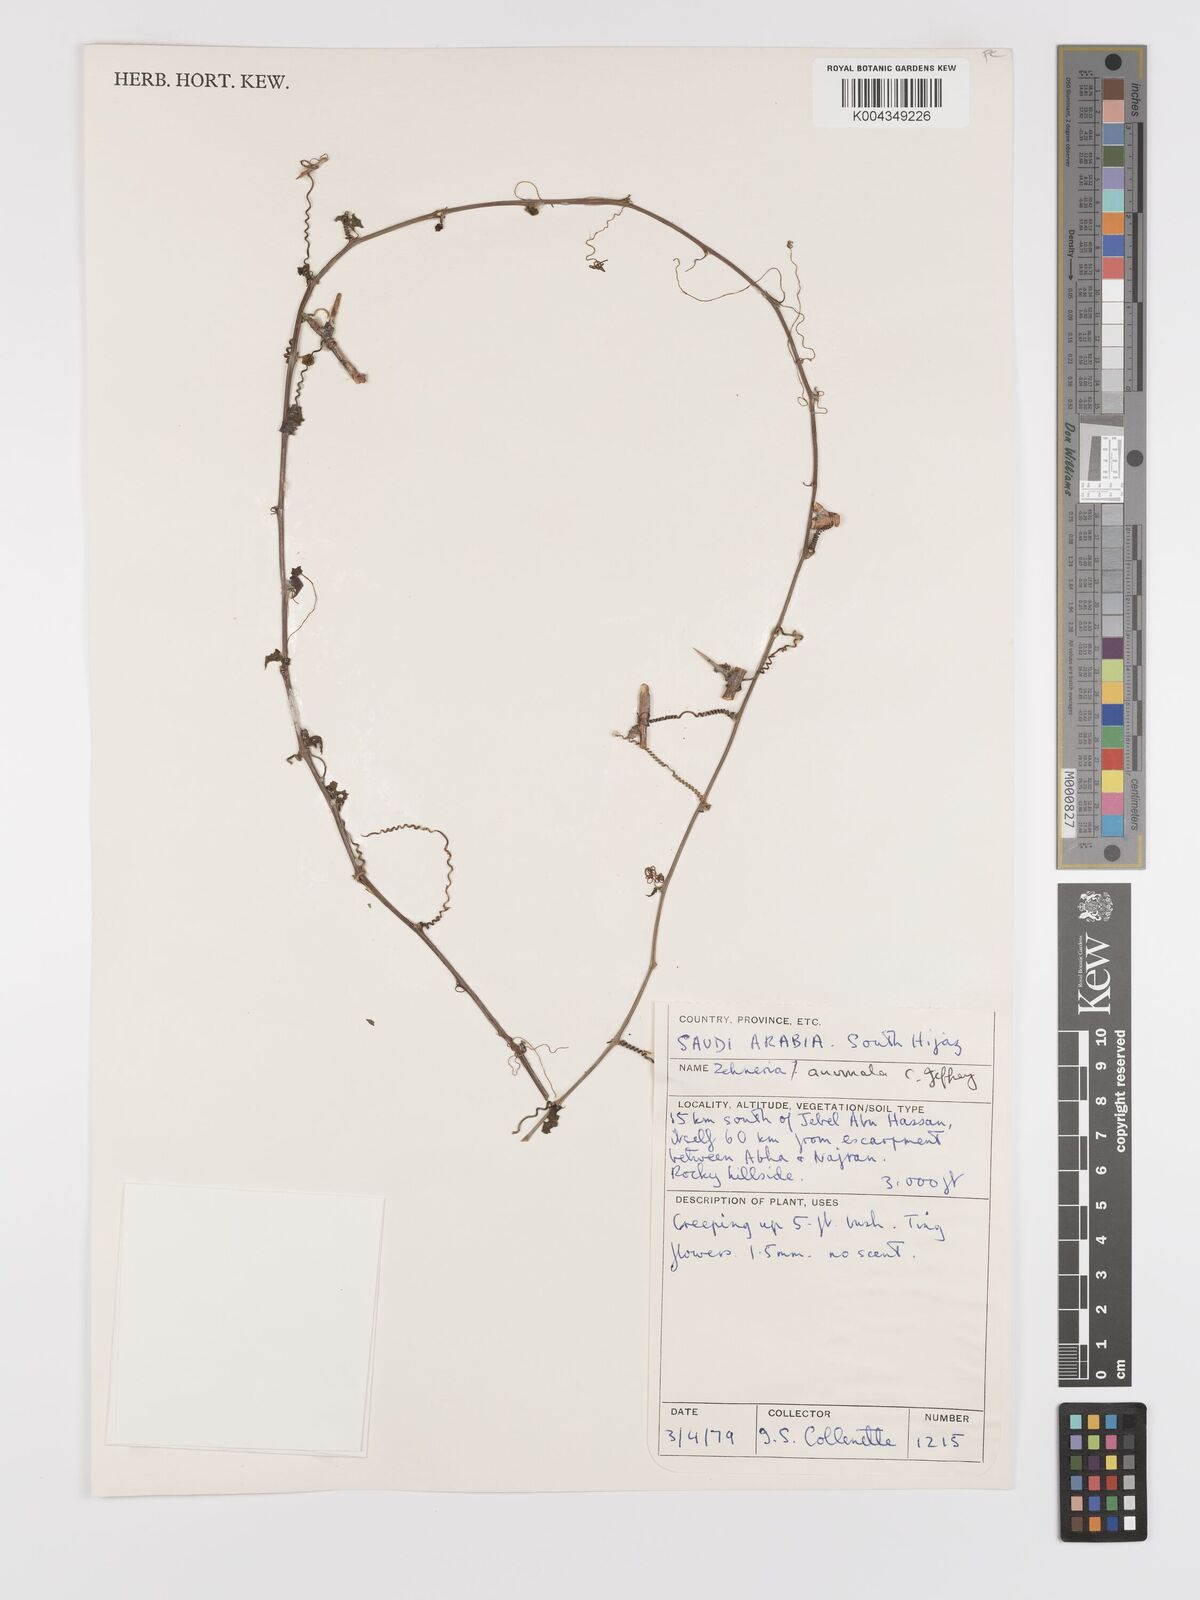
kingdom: Plantae
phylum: Tracheophyta
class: Magnoliopsida
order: Cucurbitales
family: Cucurbitaceae
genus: Zehneria
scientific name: Zehneria anomala
